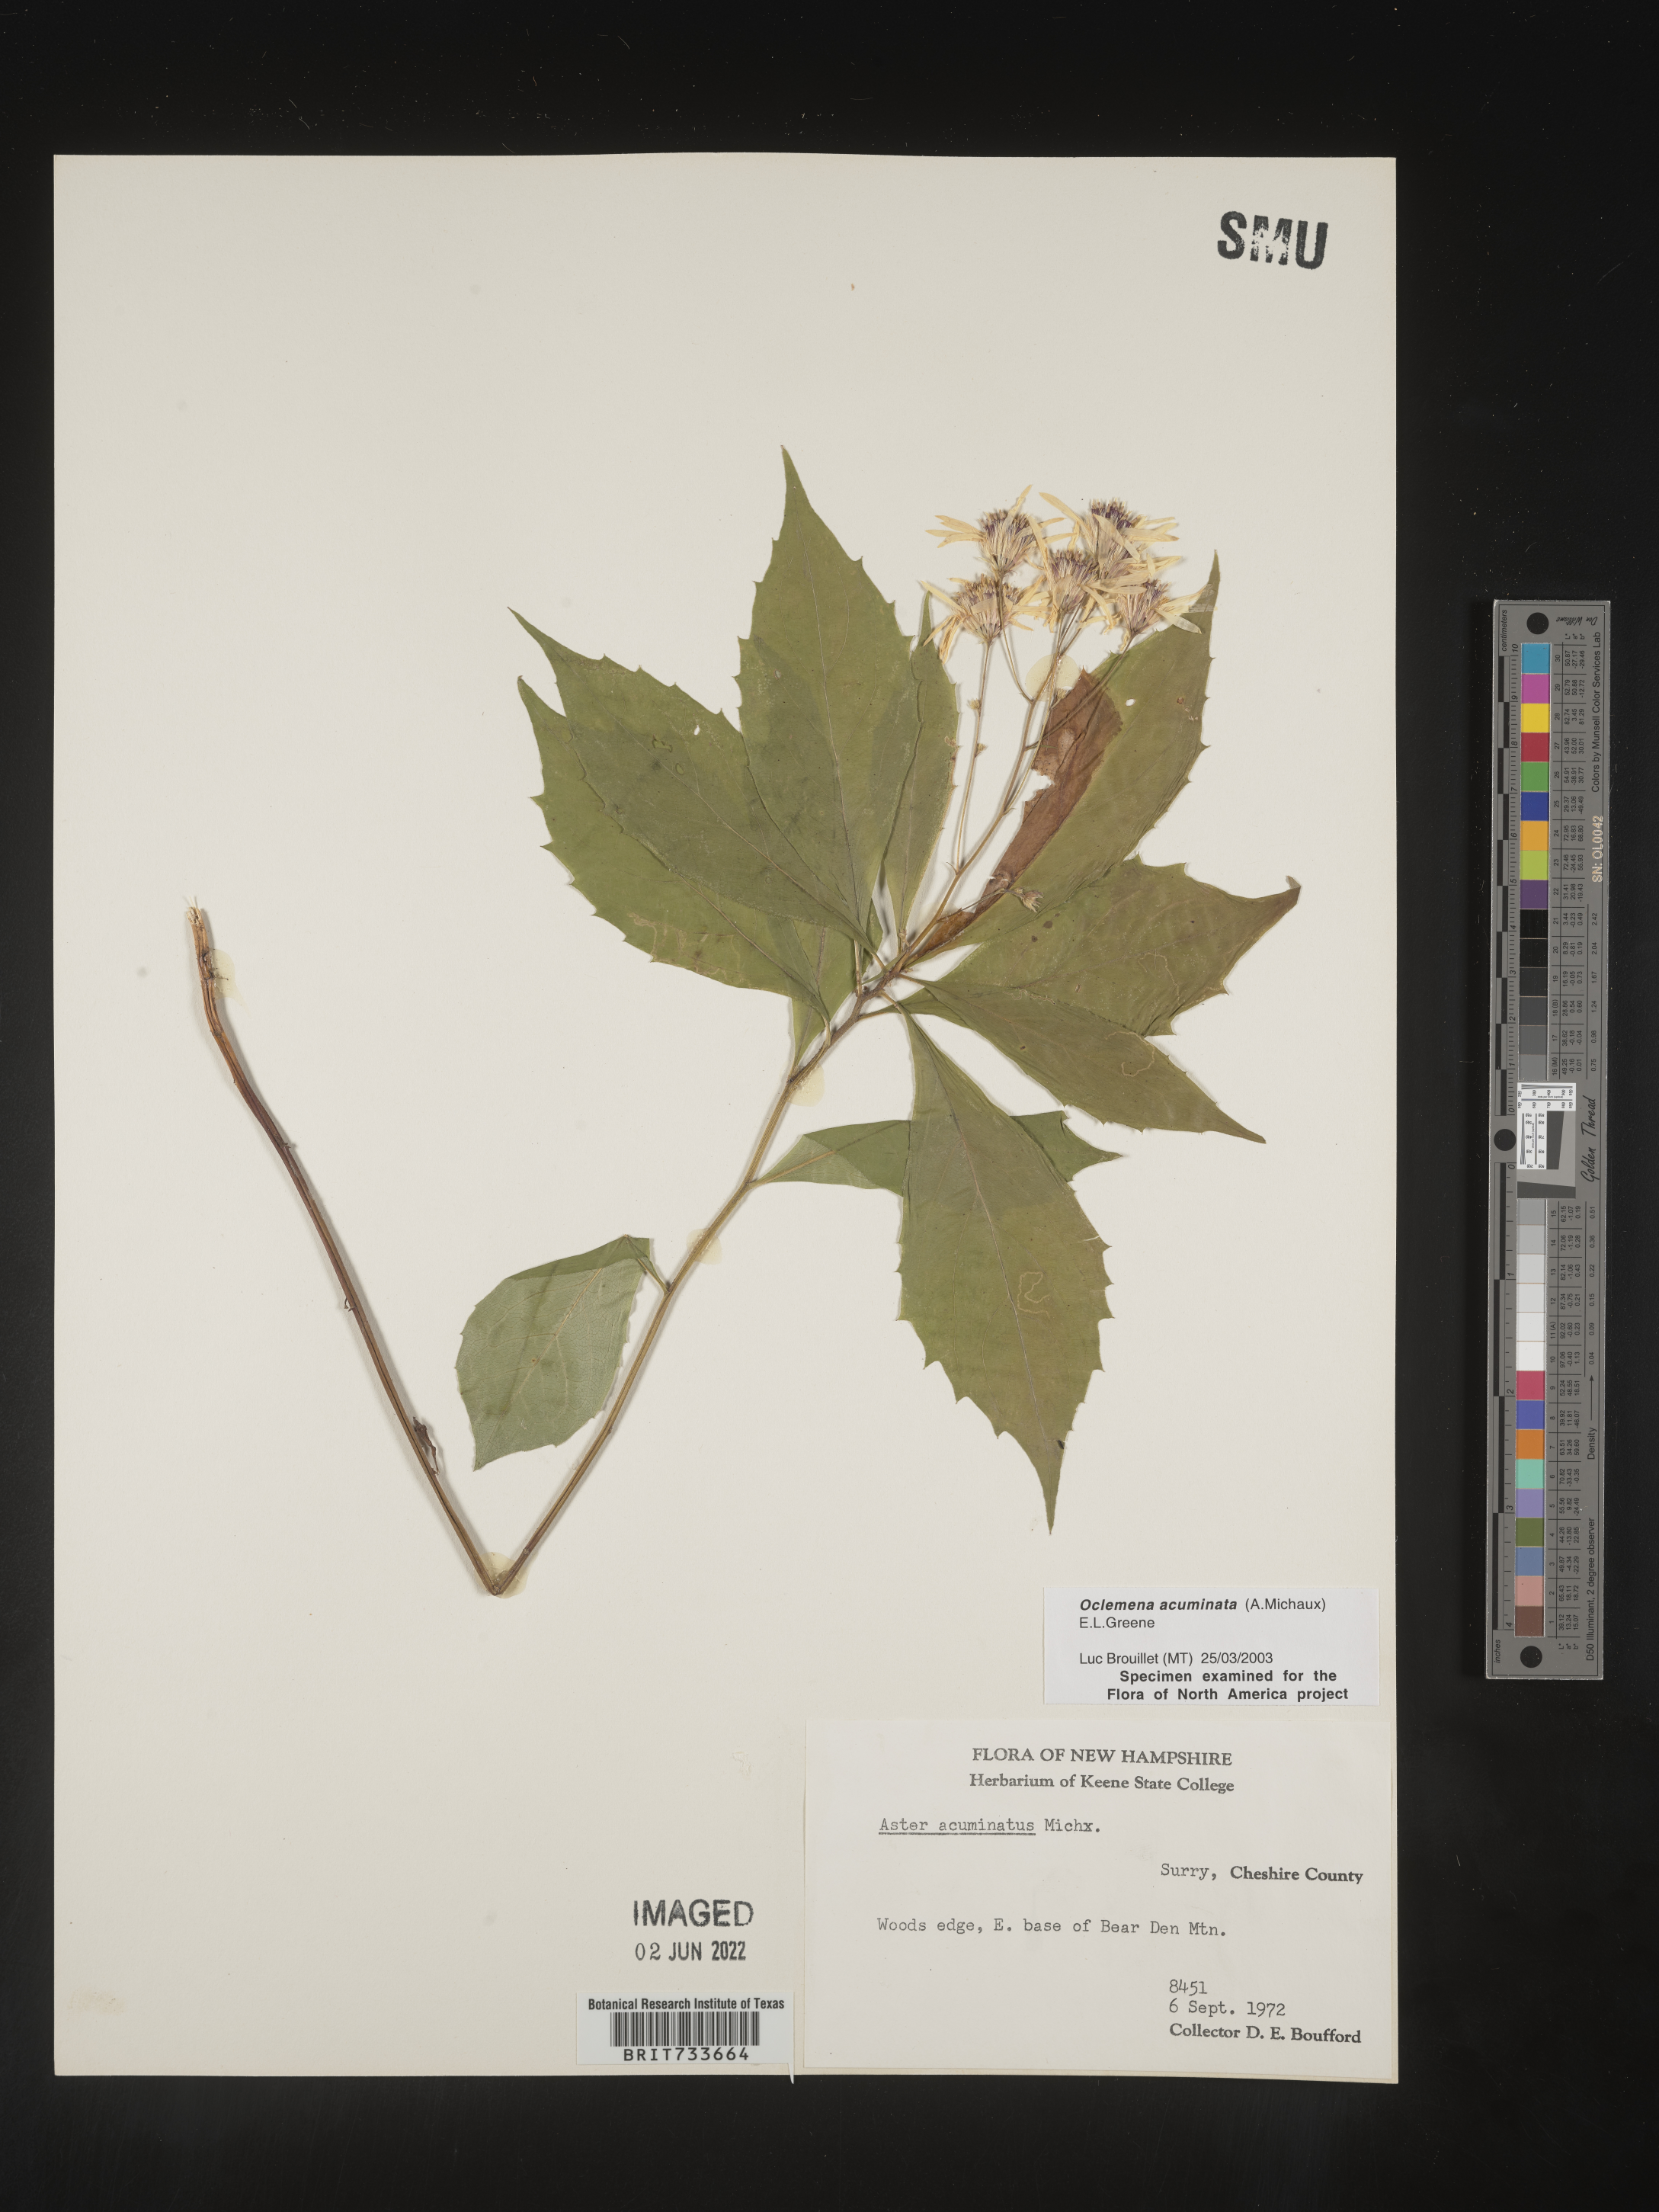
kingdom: Plantae
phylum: Tracheophyta
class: Magnoliopsida
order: Asterales
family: Asteraceae
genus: Oclemena
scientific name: Oclemena acuminata
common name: Mountain aster
